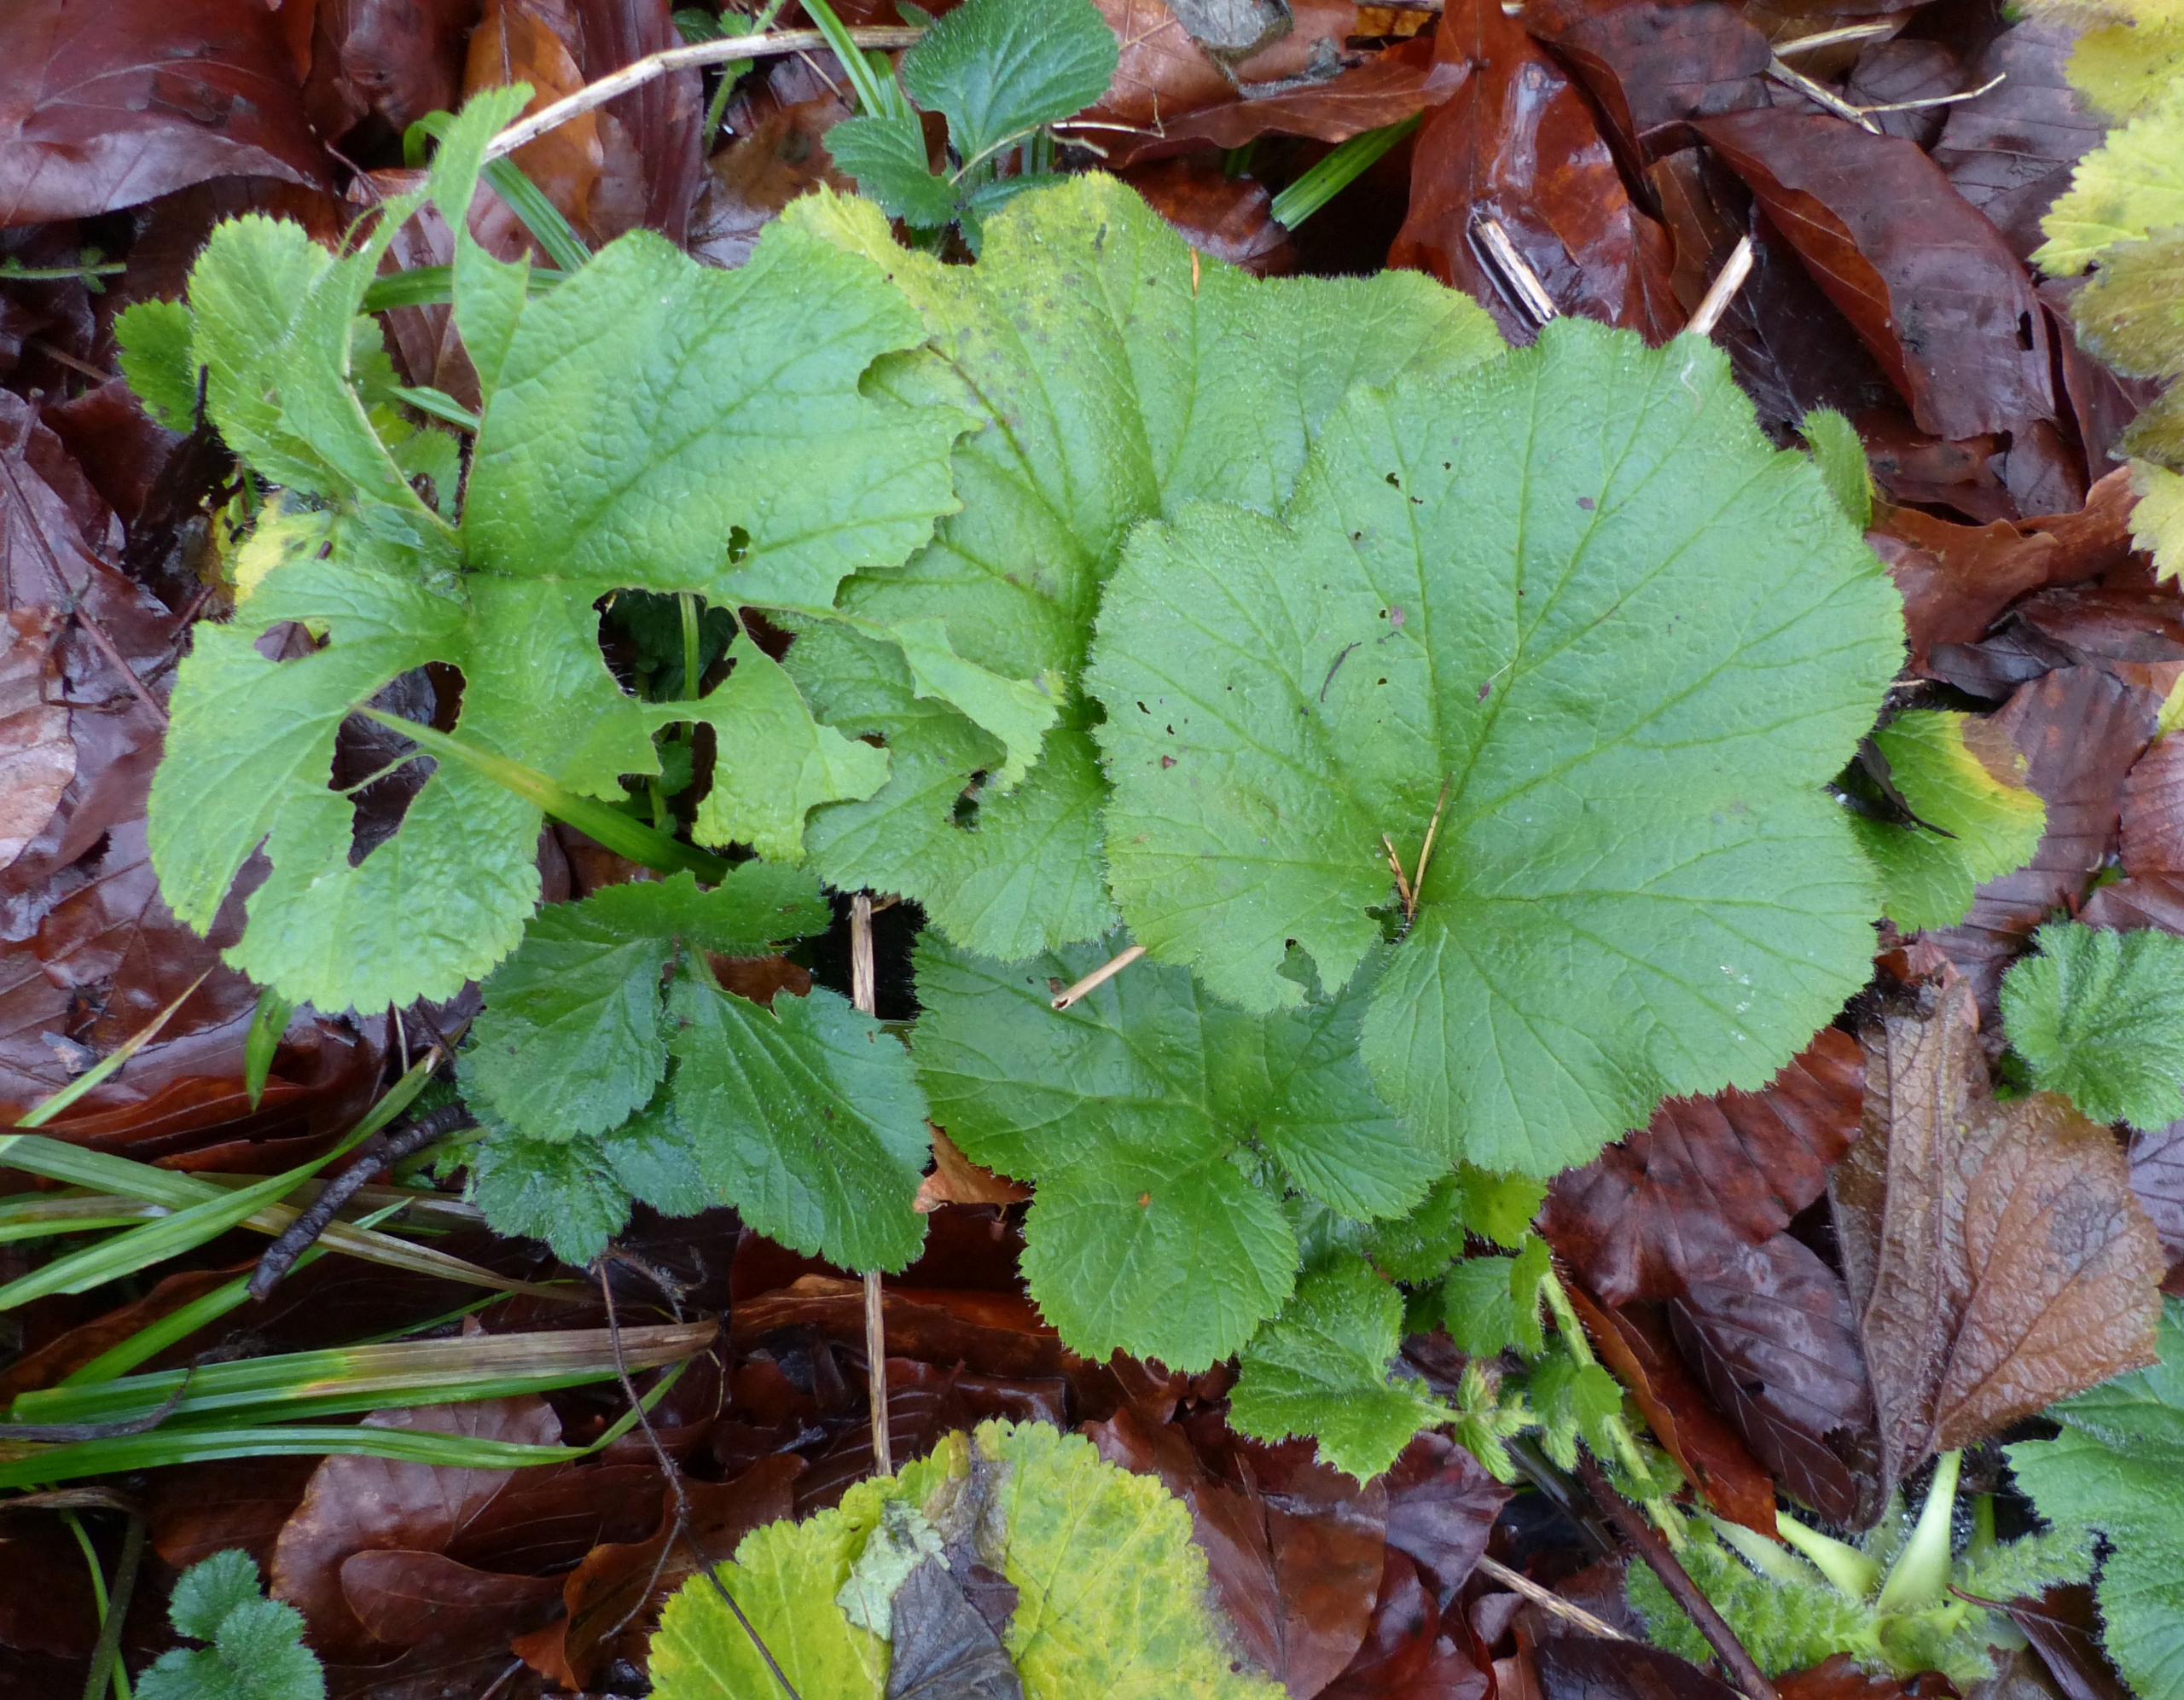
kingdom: Plantae
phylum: Tracheophyta
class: Magnoliopsida
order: Rosales
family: Rosaceae
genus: Geum
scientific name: Geum macrophyllum
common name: Amerikansk nellikerod
